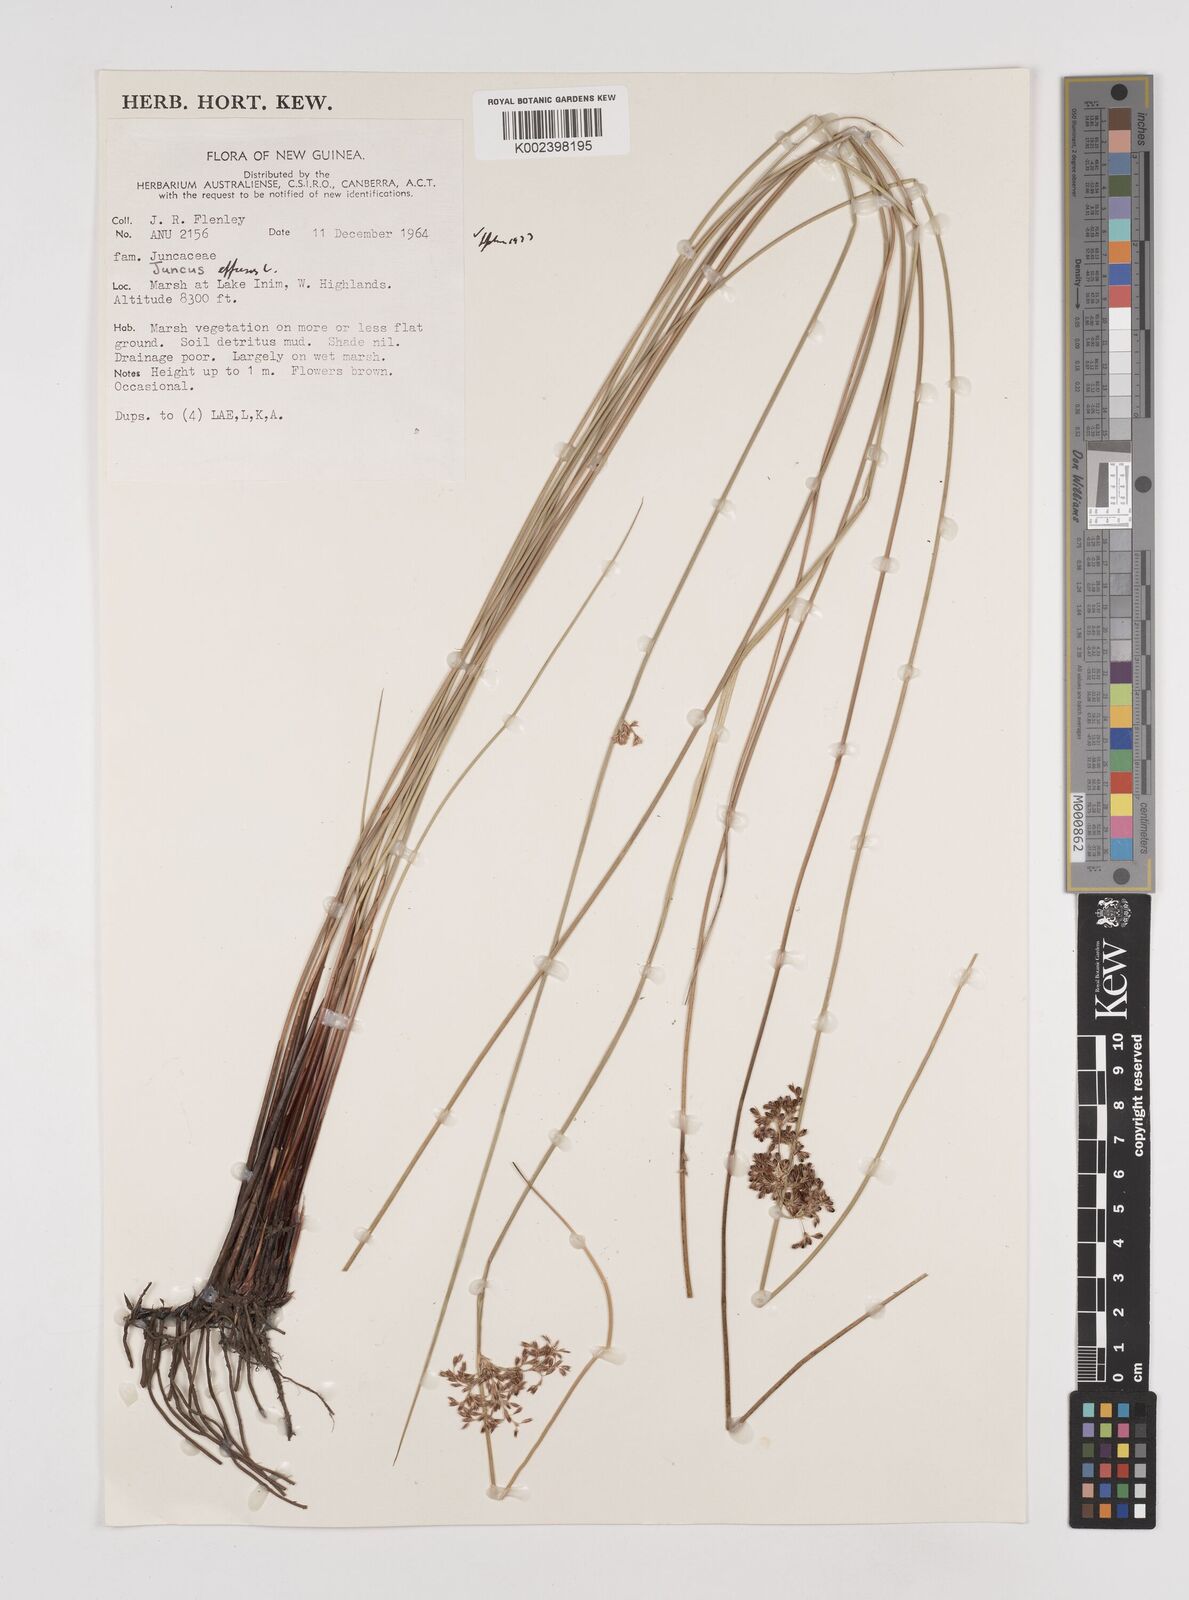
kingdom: Plantae
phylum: Tracheophyta
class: Liliopsida
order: Poales
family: Juncaceae
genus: Juncus
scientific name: Juncus decipiens
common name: Lamp rush
